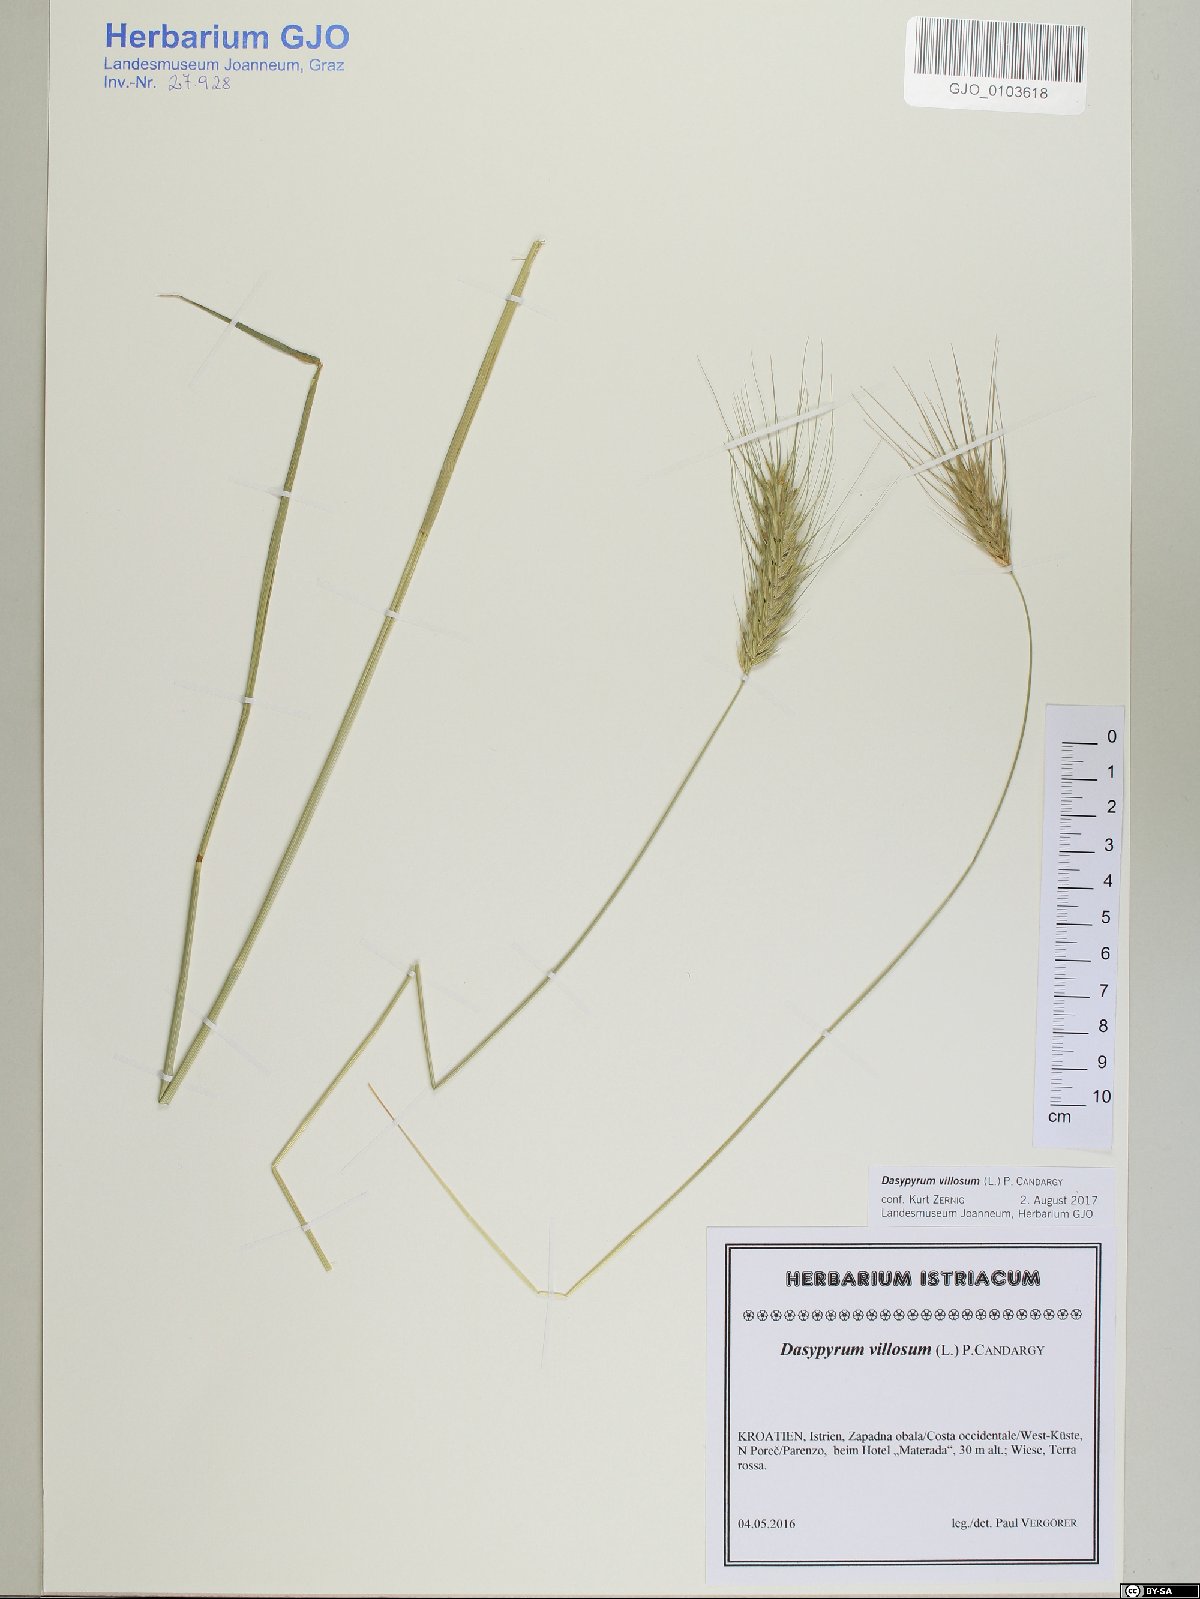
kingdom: Plantae
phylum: Tracheophyta
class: Liliopsida
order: Poales
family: Poaceae
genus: Dasypyrum
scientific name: Dasypyrum villosum
